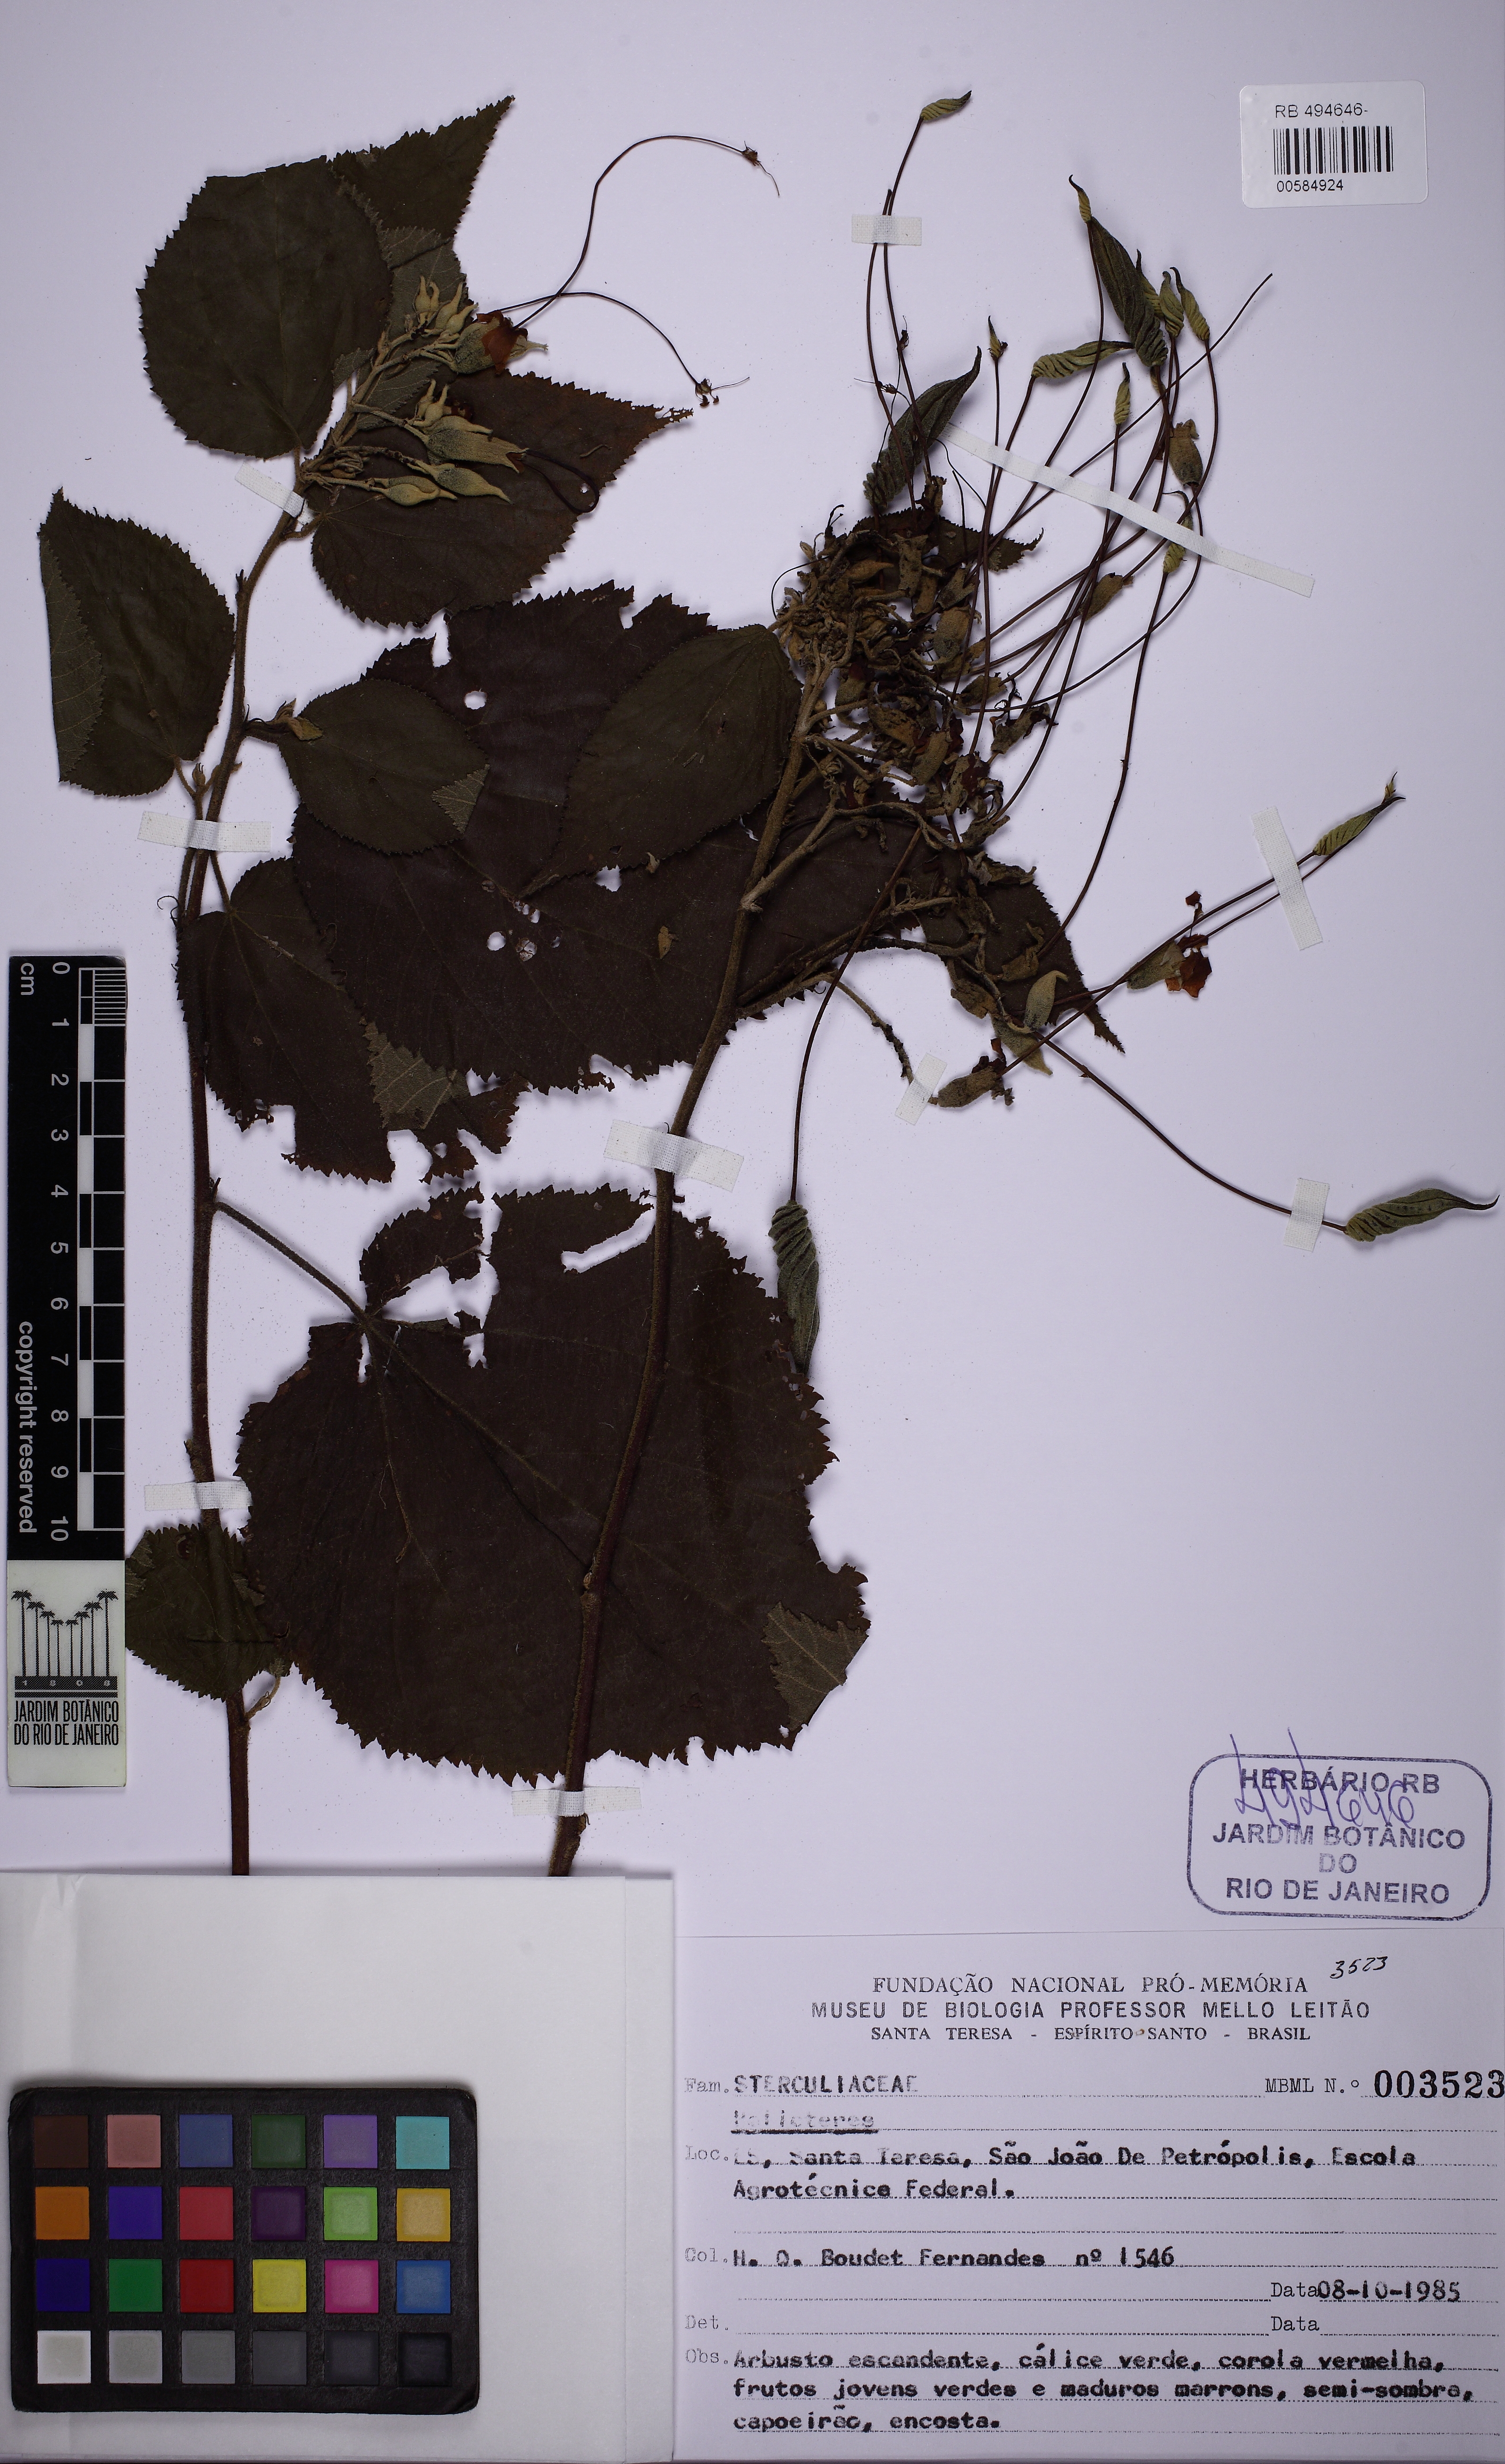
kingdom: Plantae
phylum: Tracheophyta
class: Magnoliopsida
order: Malvales
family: Malvaceae
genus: Helicteres
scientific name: Helicteres
